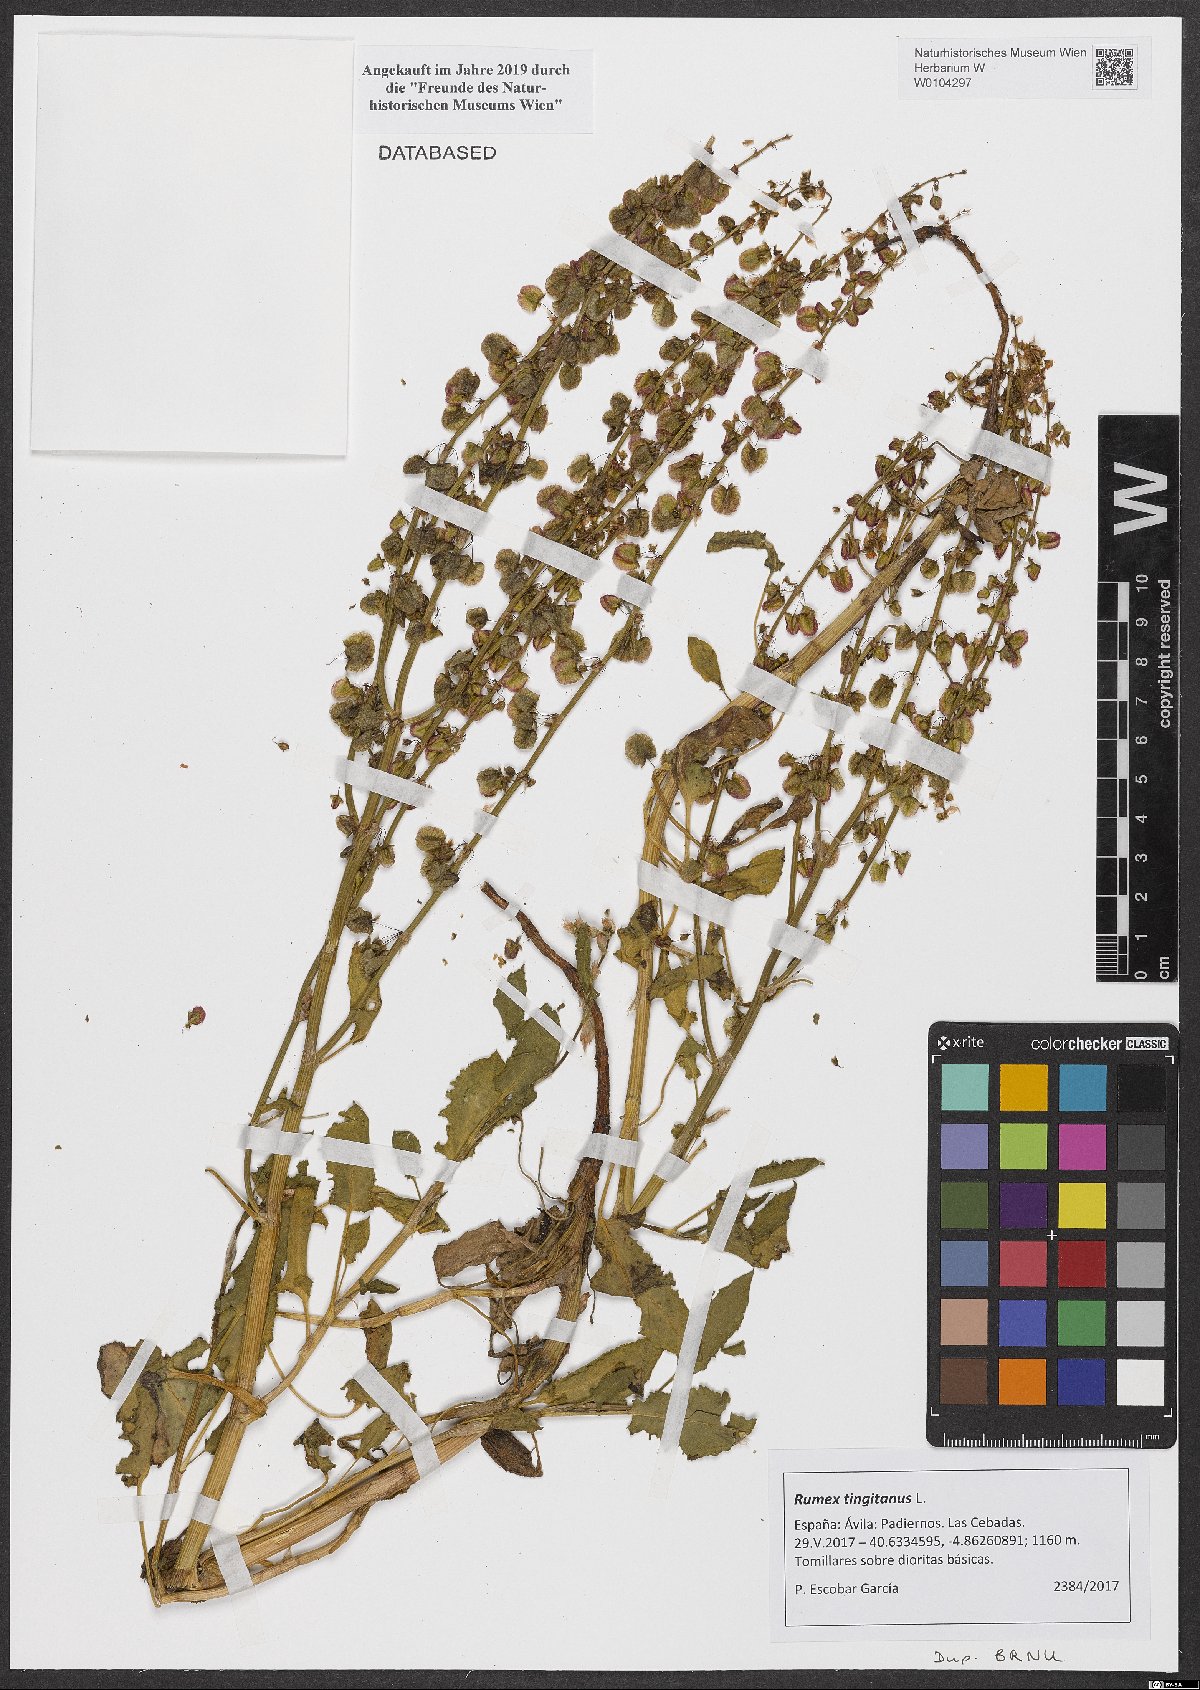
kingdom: Plantae
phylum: Tracheophyta
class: Magnoliopsida
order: Caryophyllales
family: Polygonaceae
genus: Rumex
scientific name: Rumex roseus
